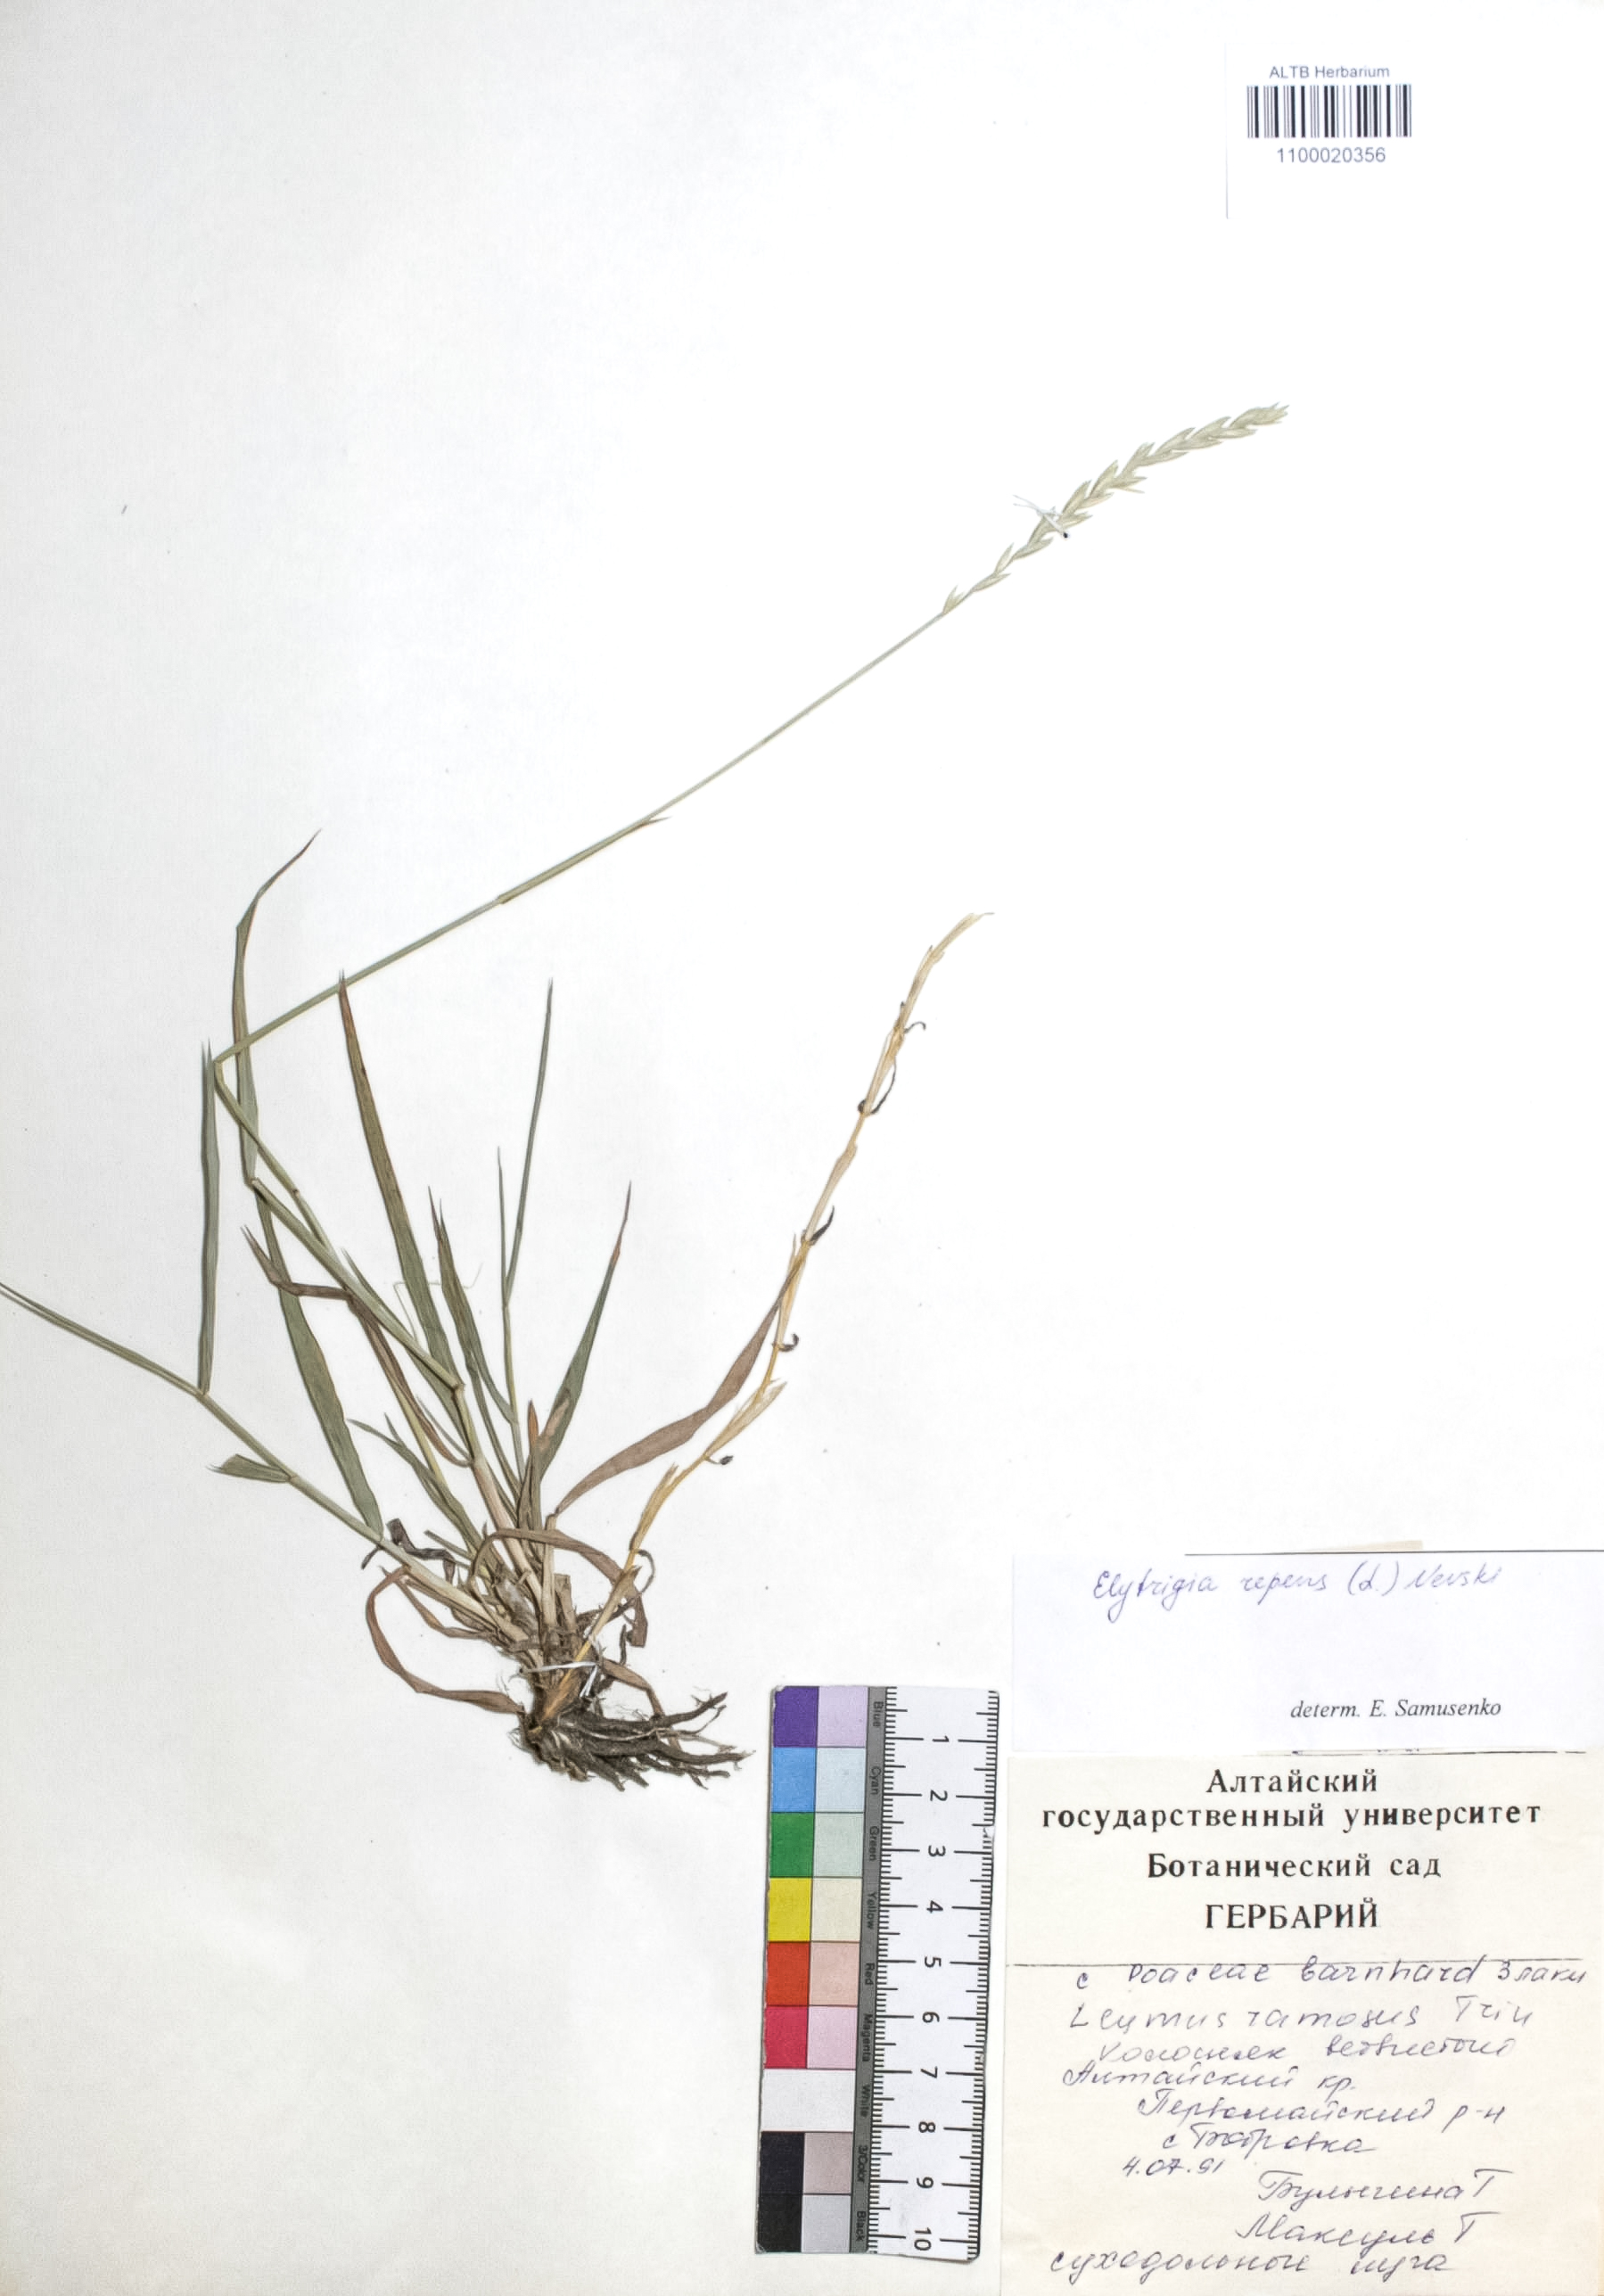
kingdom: Plantae
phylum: Tracheophyta
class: Liliopsida
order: Poales
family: Poaceae
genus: Elymus
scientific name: Elymus repens
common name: Quackgrass
